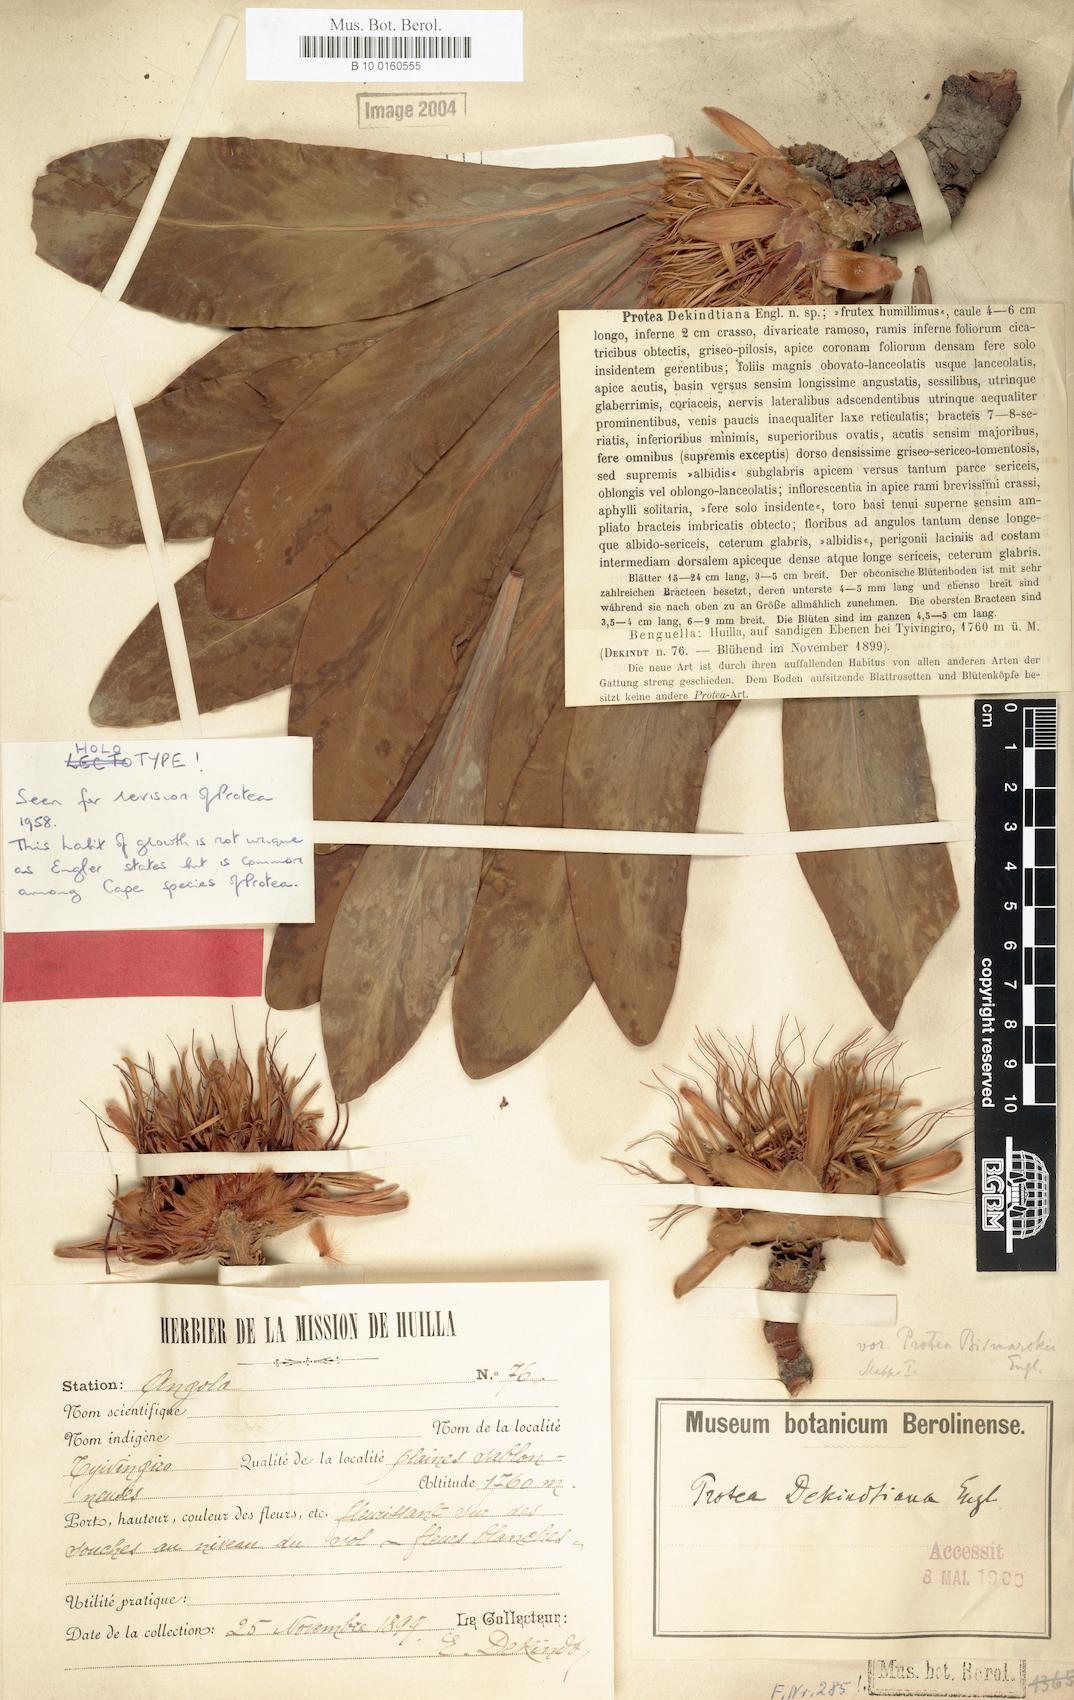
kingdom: Plantae
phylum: Tracheophyta
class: Magnoliopsida
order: Proteales
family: Proteaceae
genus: Protea
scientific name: Protea dekindtiana
